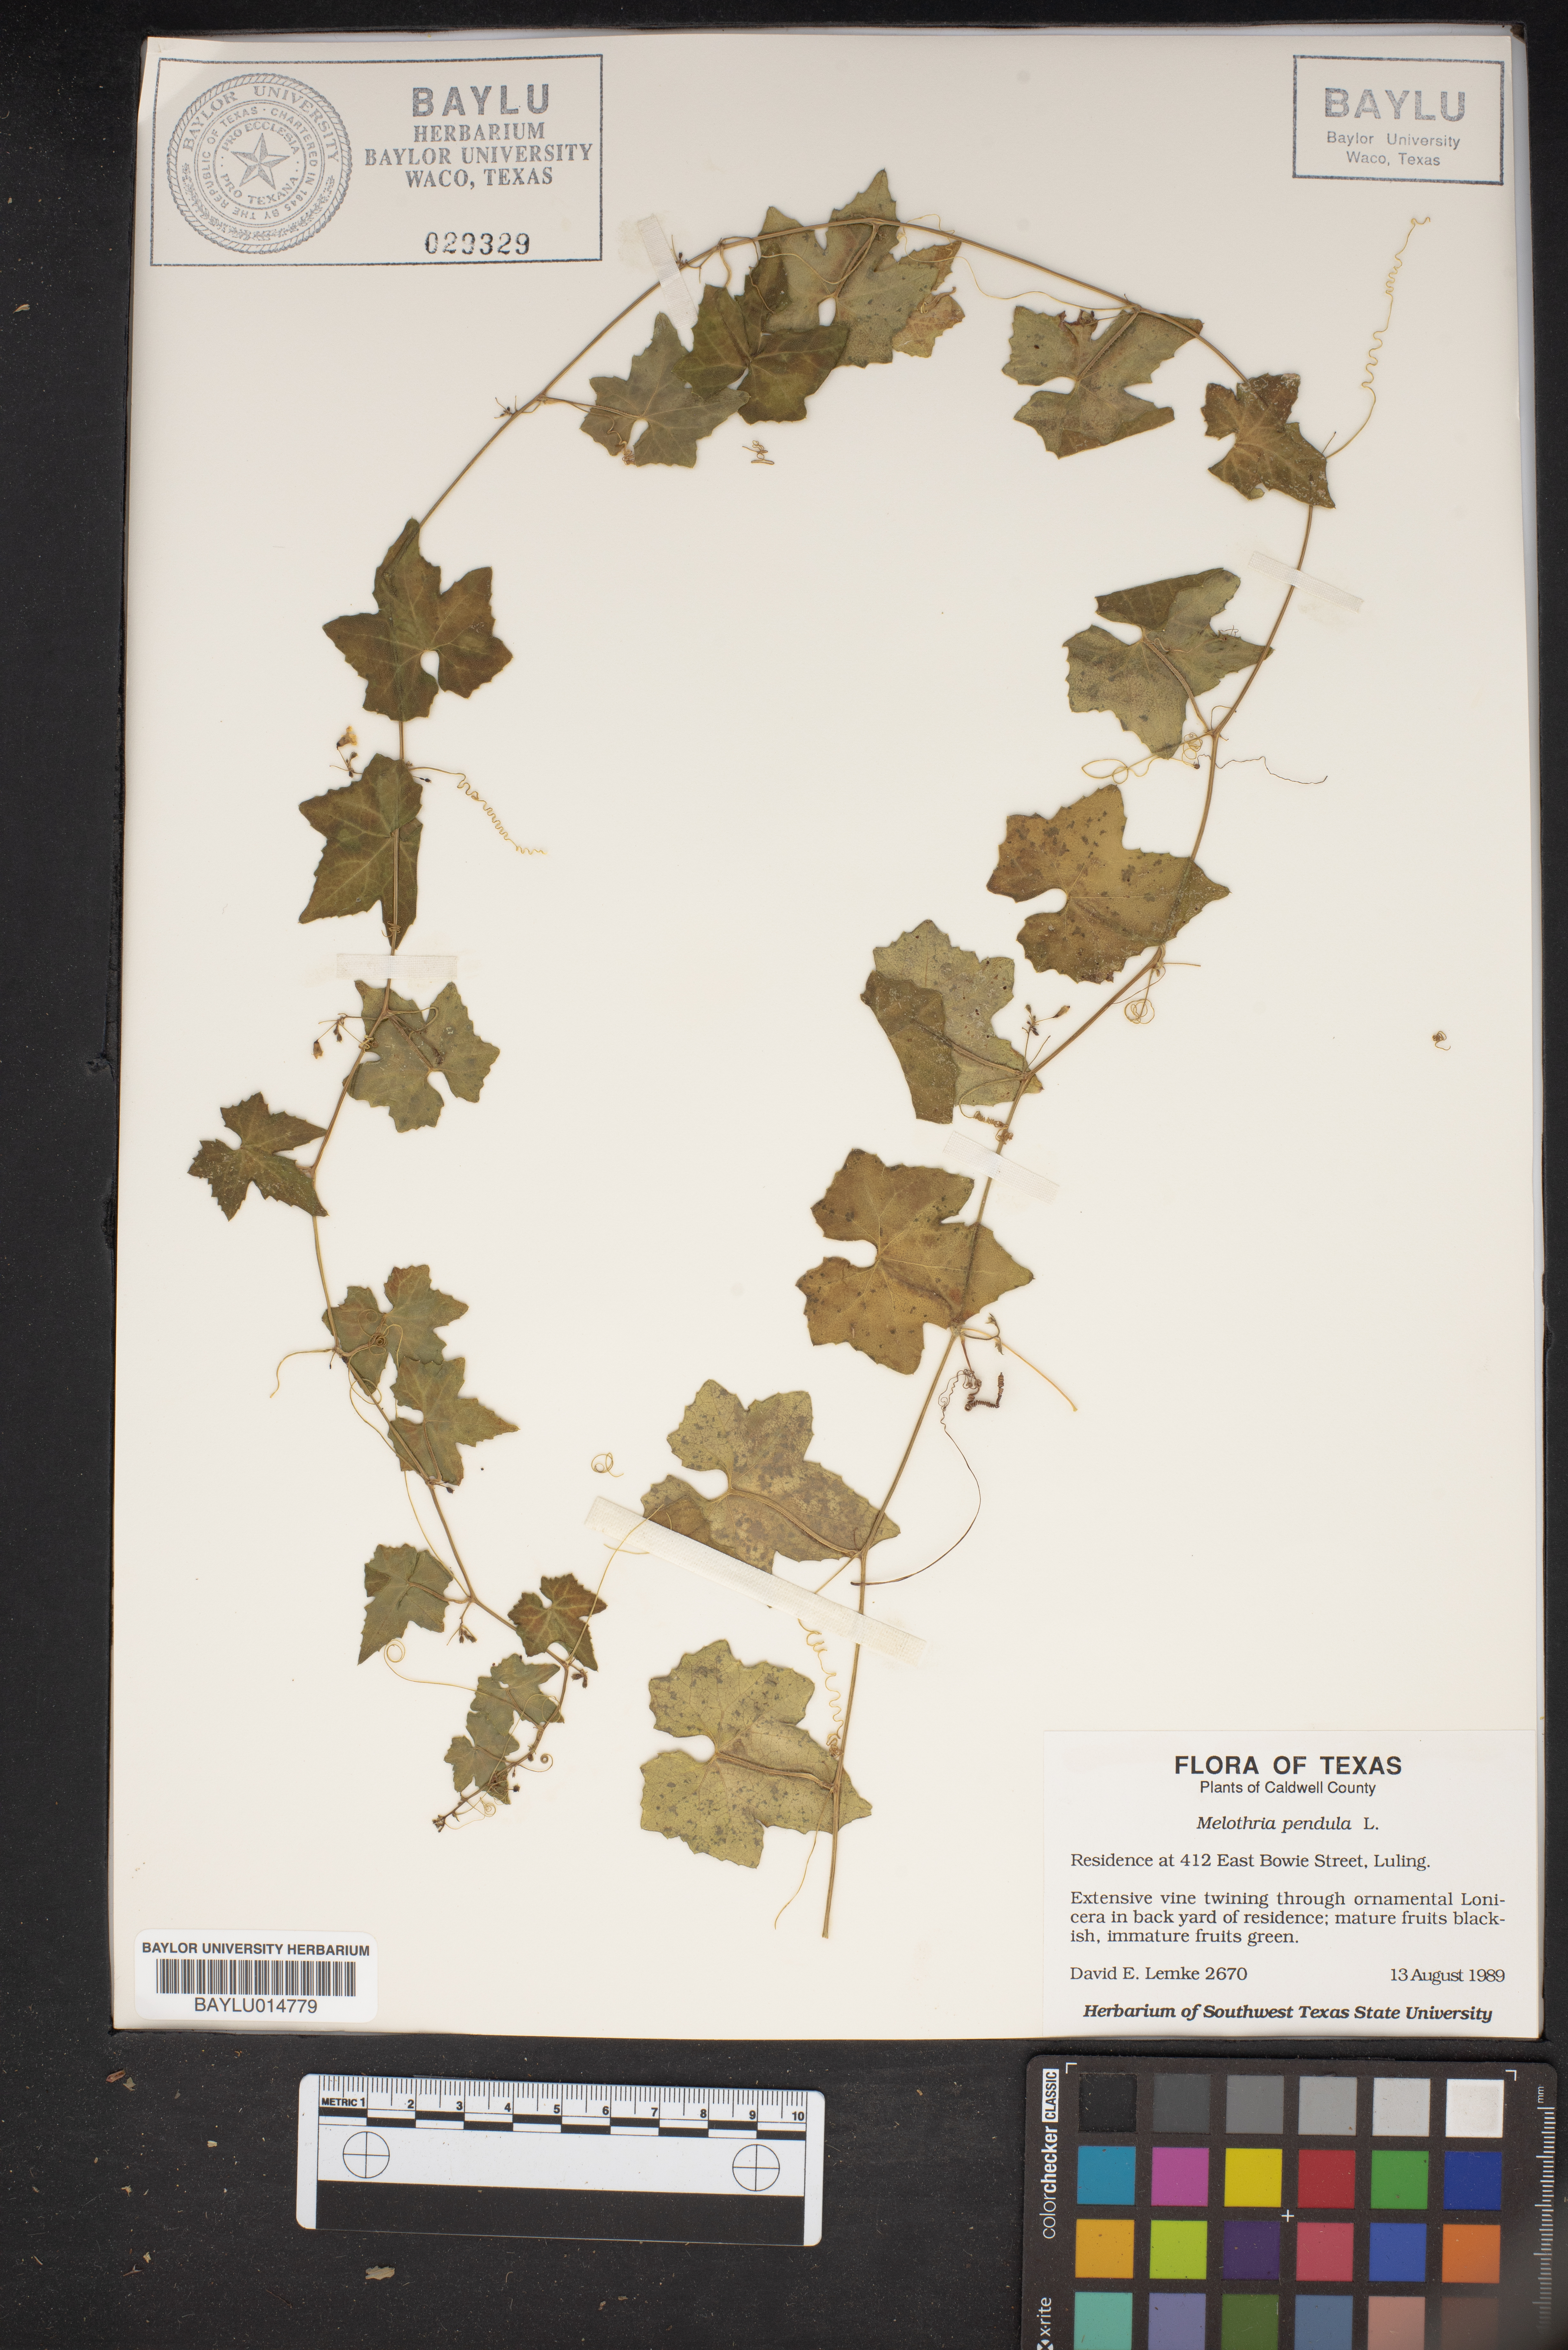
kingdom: Plantae
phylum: Tracheophyta
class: Magnoliopsida
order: Cucurbitales
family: Cucurbitaceae
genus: Melothria
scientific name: Melothria pendula
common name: Creeping-cucumber
